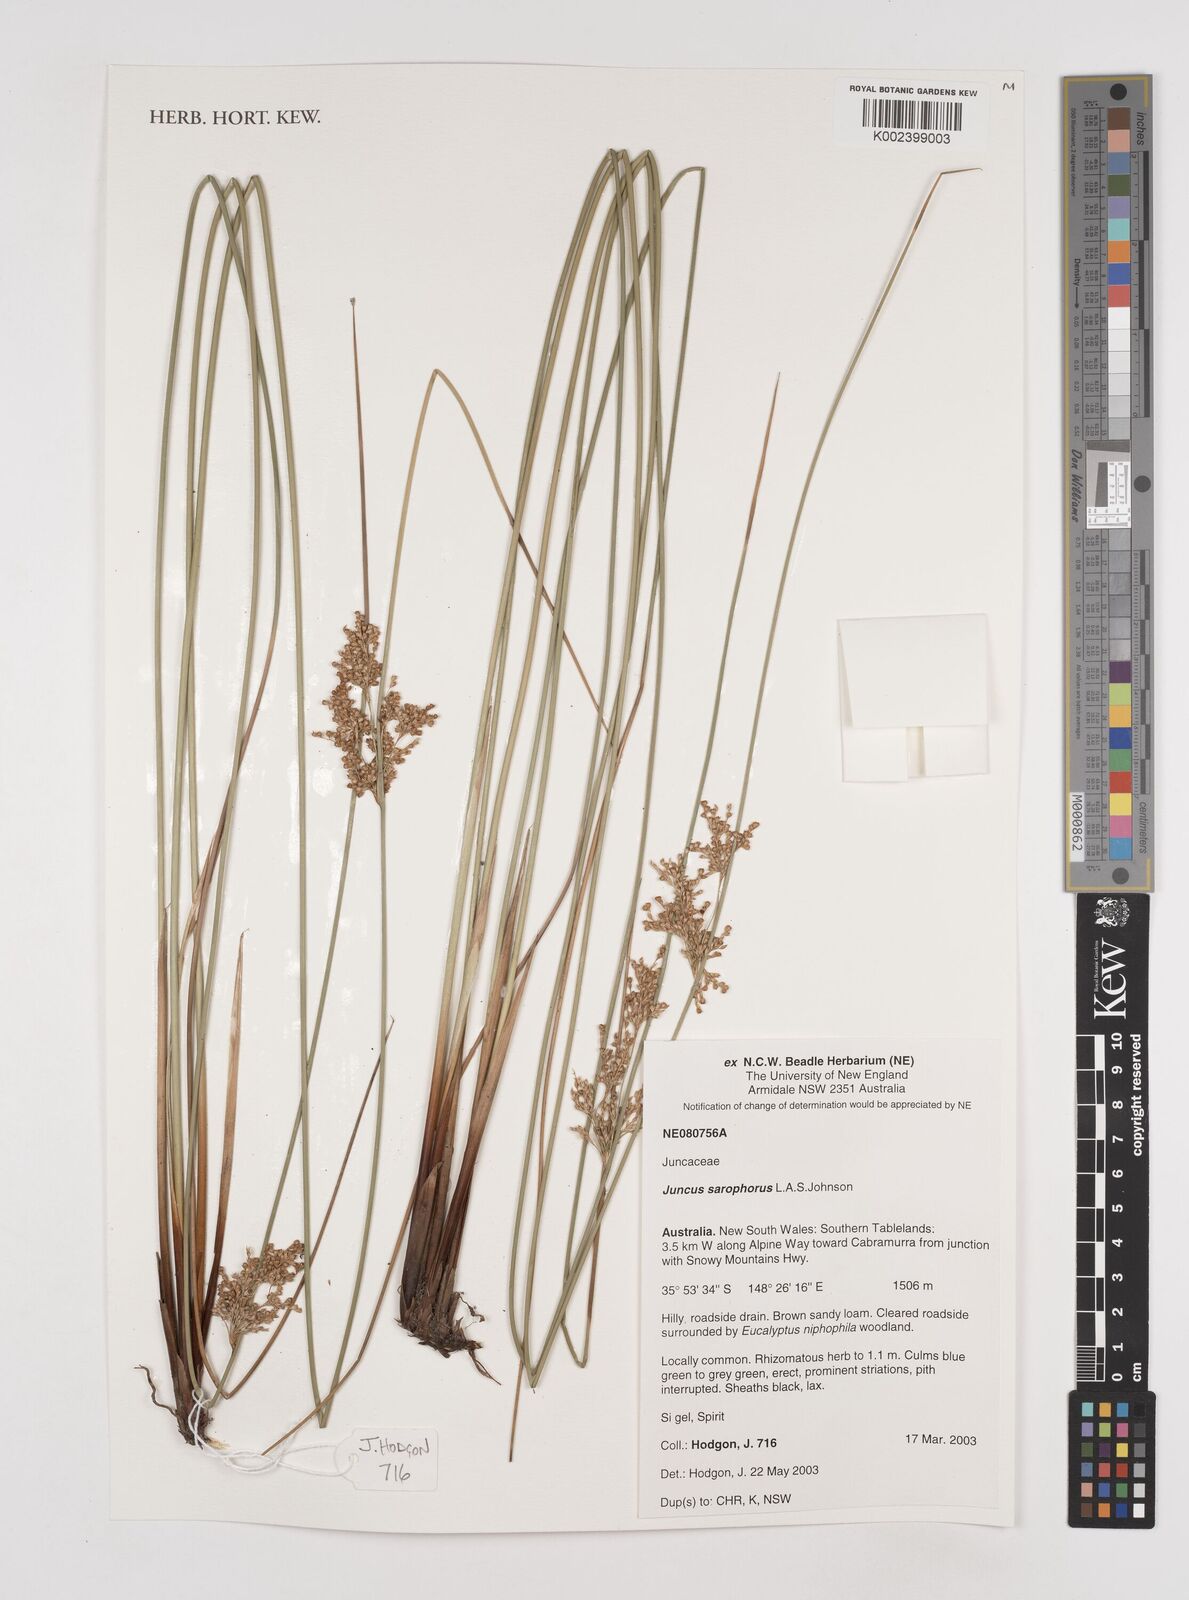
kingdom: Plantae
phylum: Tracheophyta
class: Liliopsida
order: Poales
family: Juncaceae
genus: Juncus
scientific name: Juncus sarophorus
